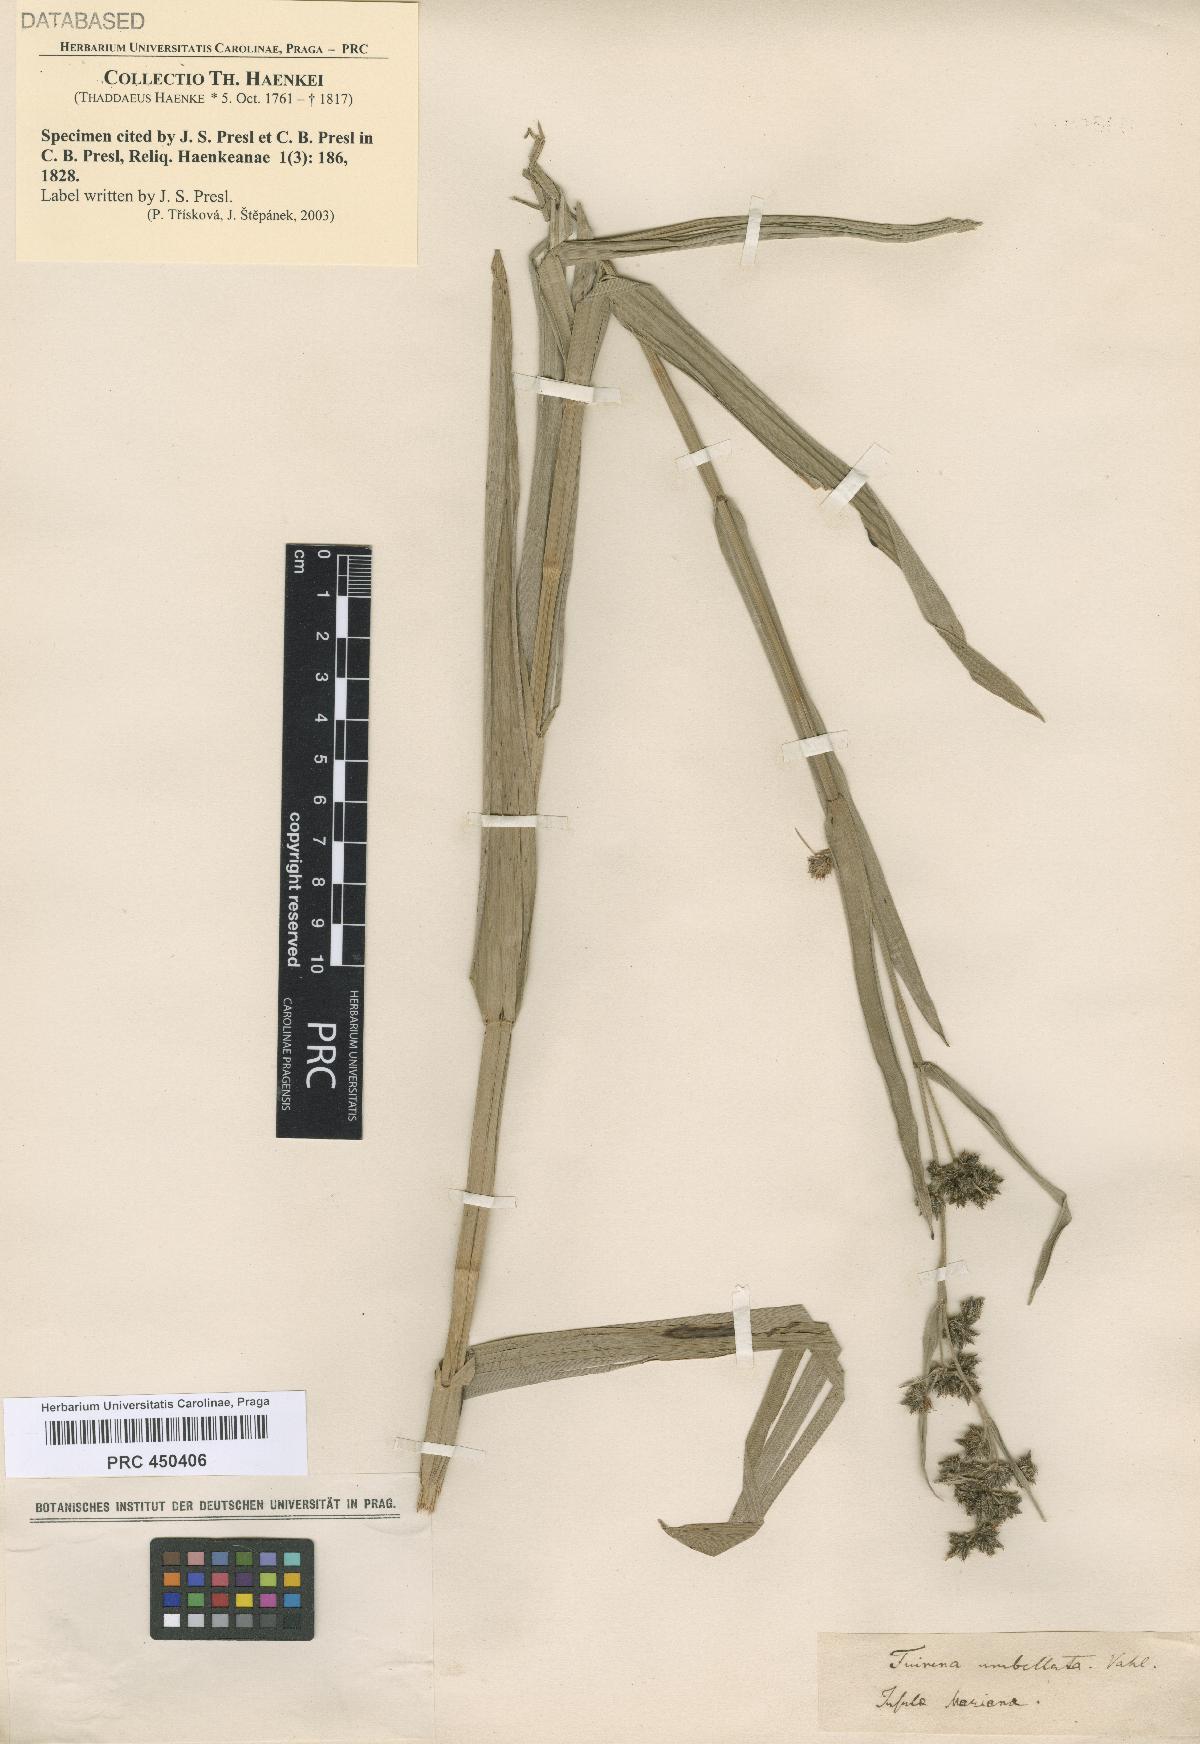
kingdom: Plantae
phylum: Tracheophyta
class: Liliopsida
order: Poales
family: Cyperaceae
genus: Fuirena
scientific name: Fuirena umbellata
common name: Yefen
